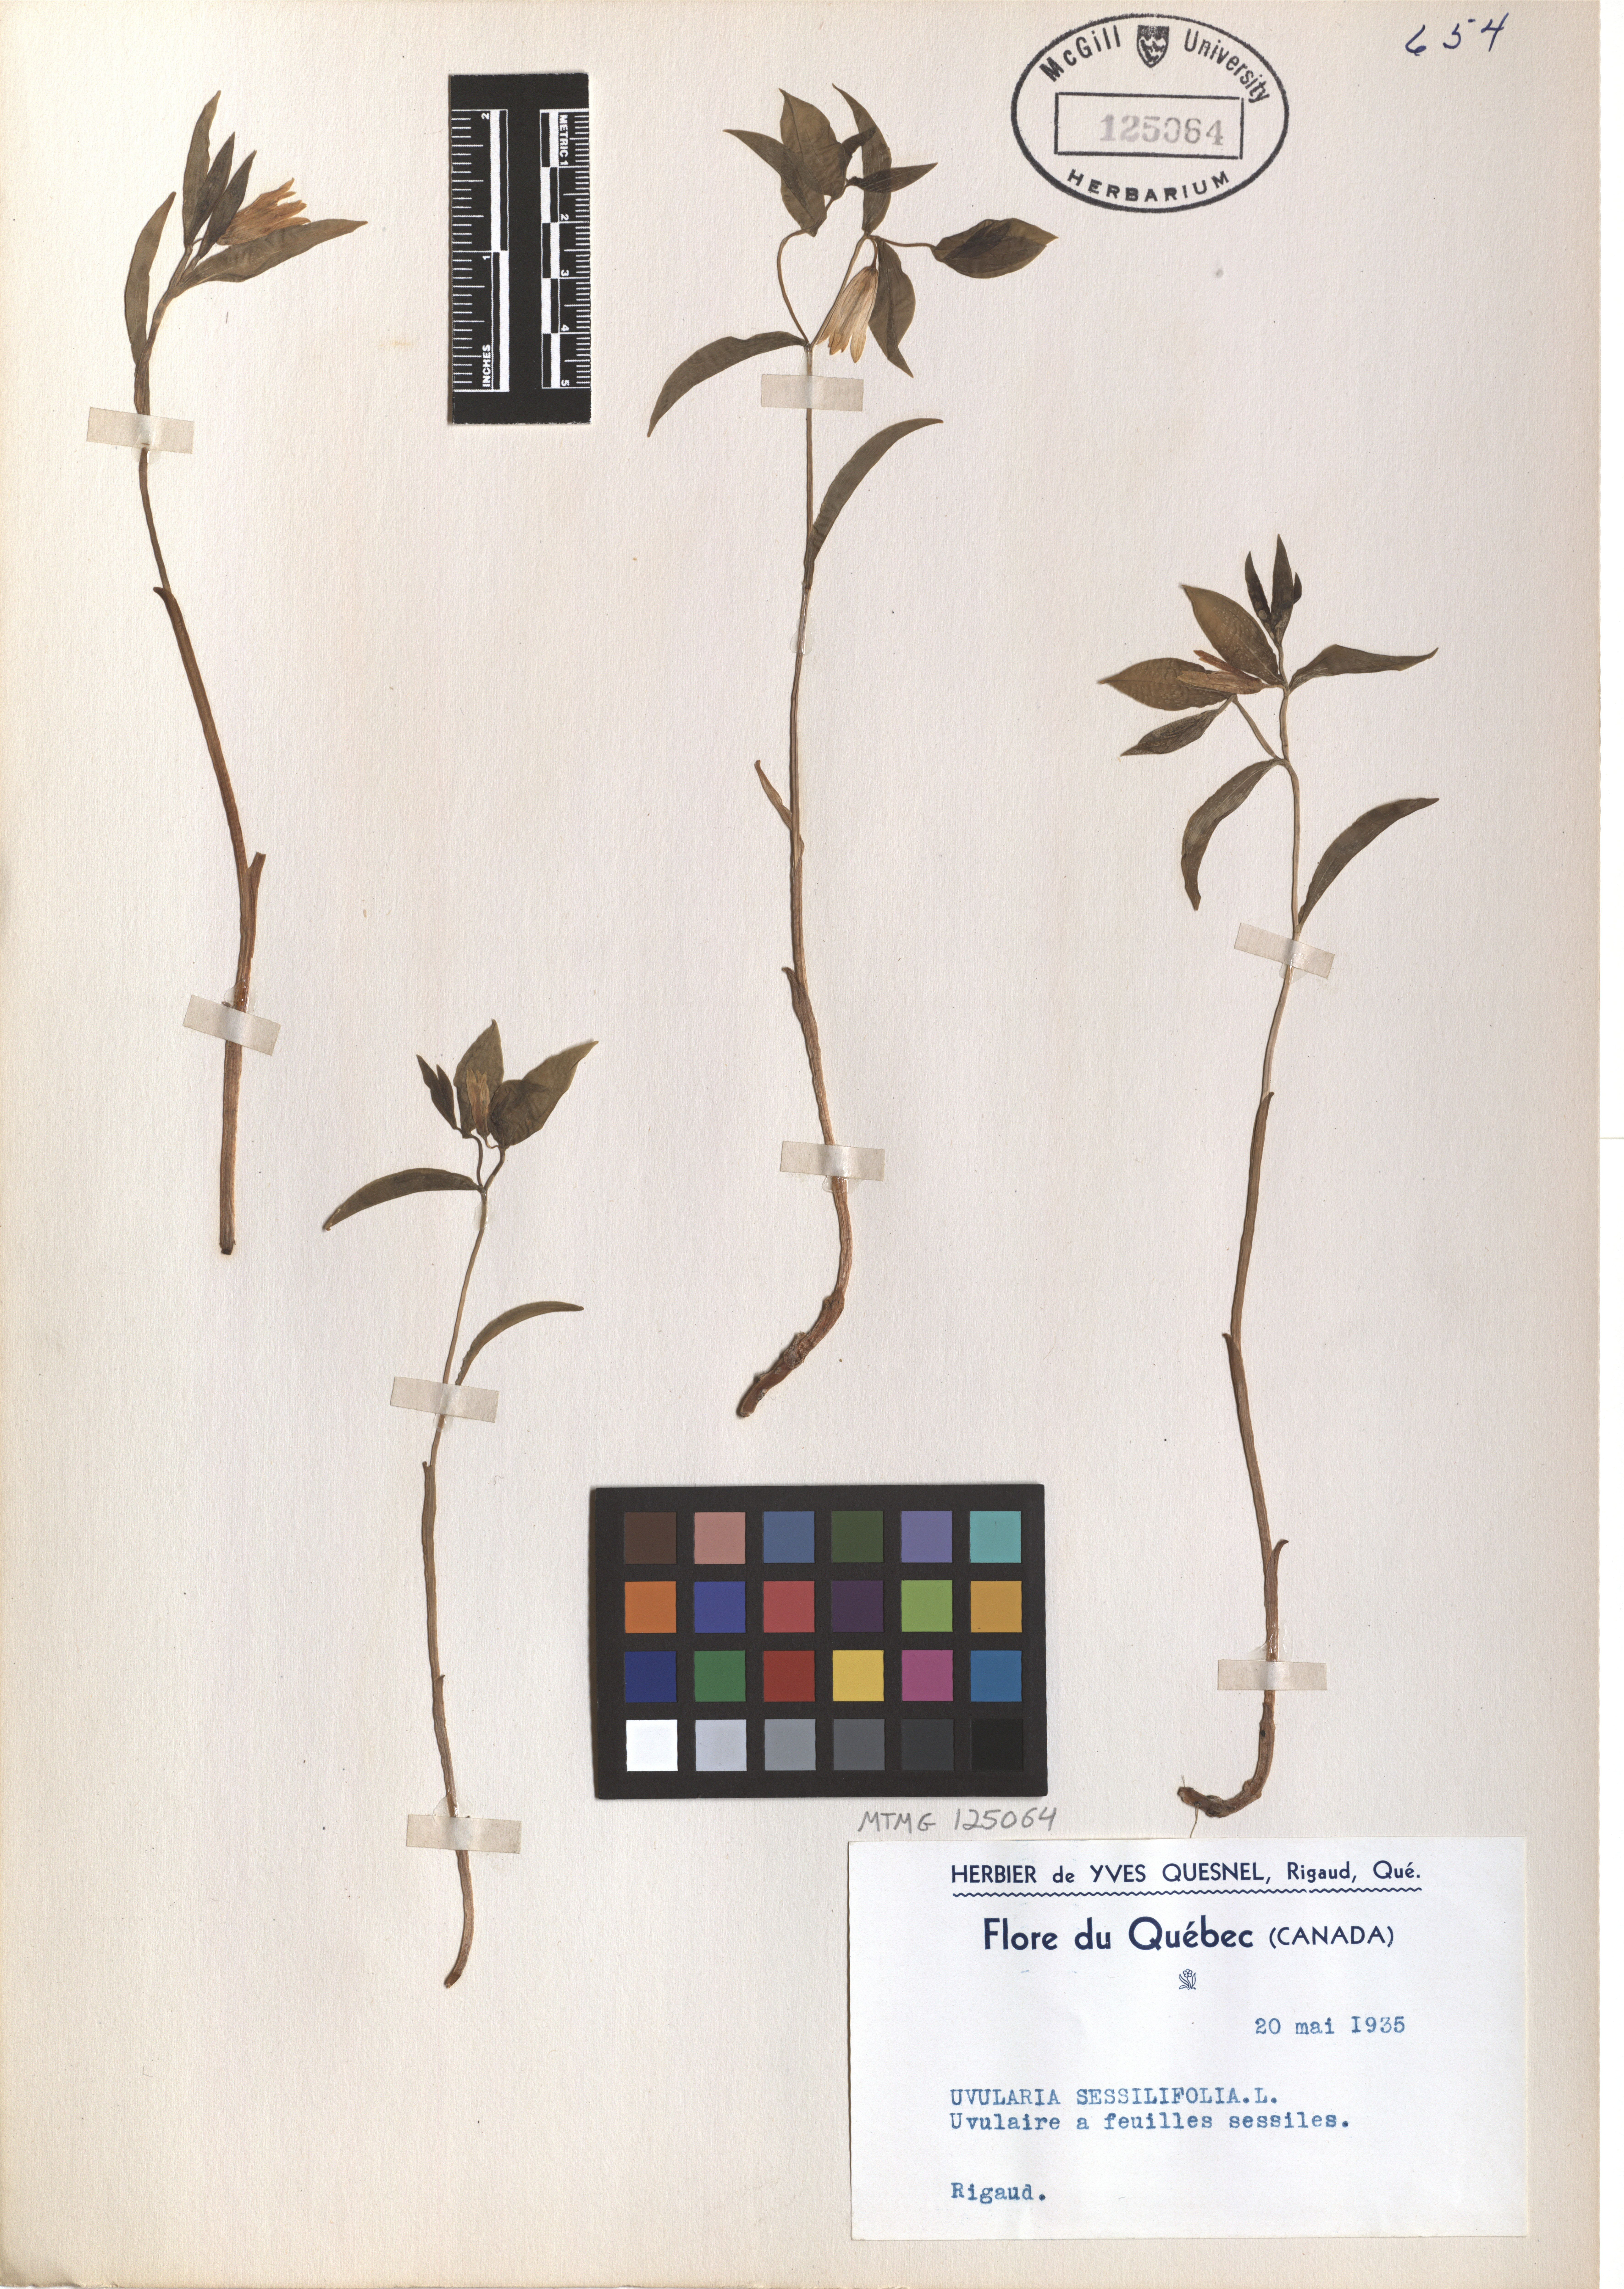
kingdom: Plantae
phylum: Tracheophyta
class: Liliopsida
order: Liliales
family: Colchicaceae
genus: Uvularia
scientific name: Uvularia sessilifolia
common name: Straw-lily
